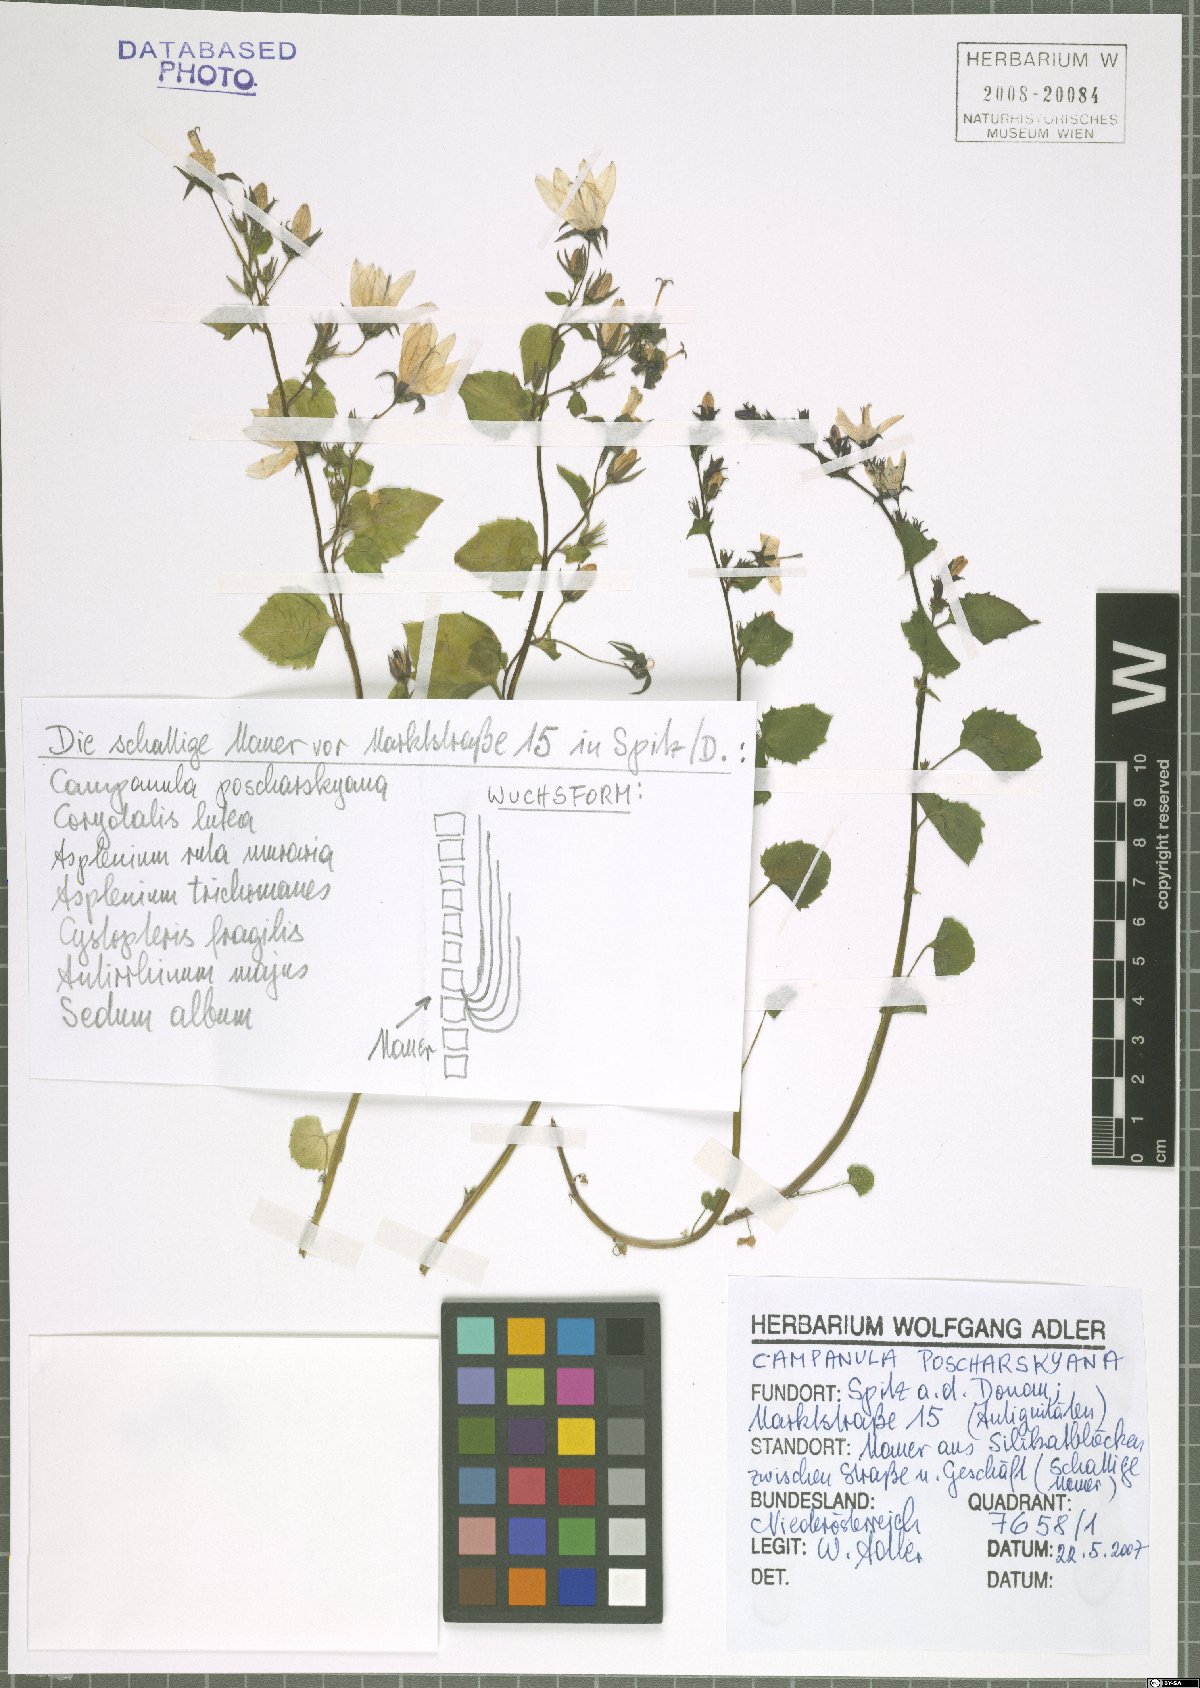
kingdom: Plantae
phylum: Tracheophyta
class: Magnoliopsida
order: Asterales
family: Campanulaceae
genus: Campanula
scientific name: Campanula poscharskyana
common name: Trailing bellflower
